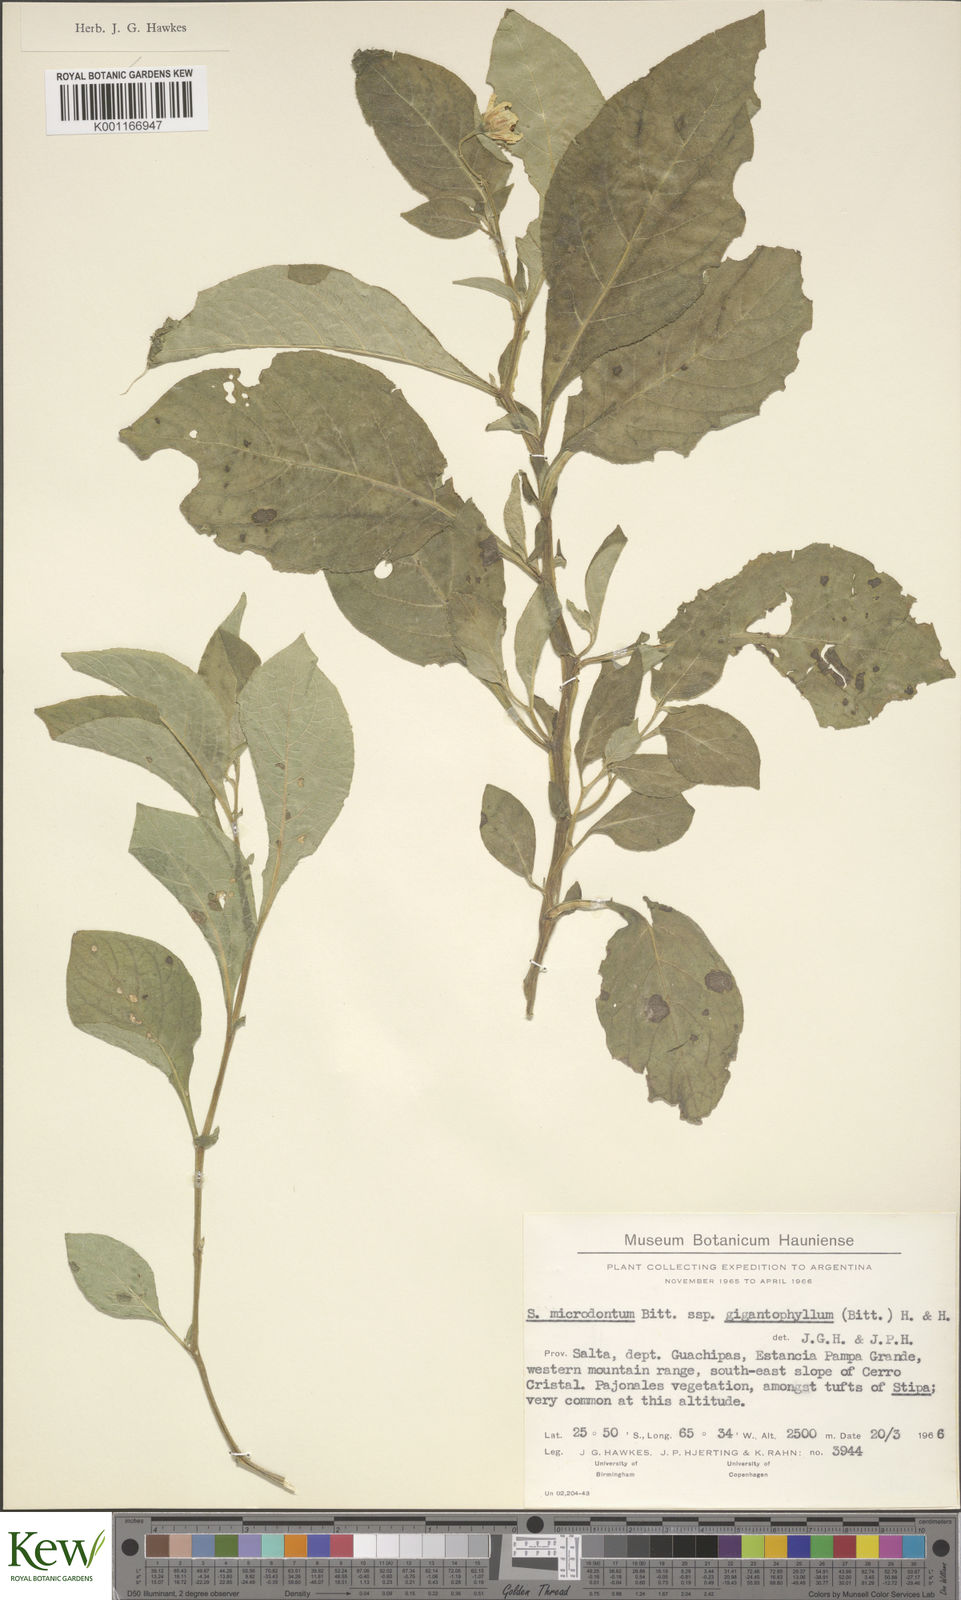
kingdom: Plantae
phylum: Tracheophyta
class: Magnoliopsida
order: Solanales
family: Solanaceae
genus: Solanum
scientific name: Solanum microdontum
